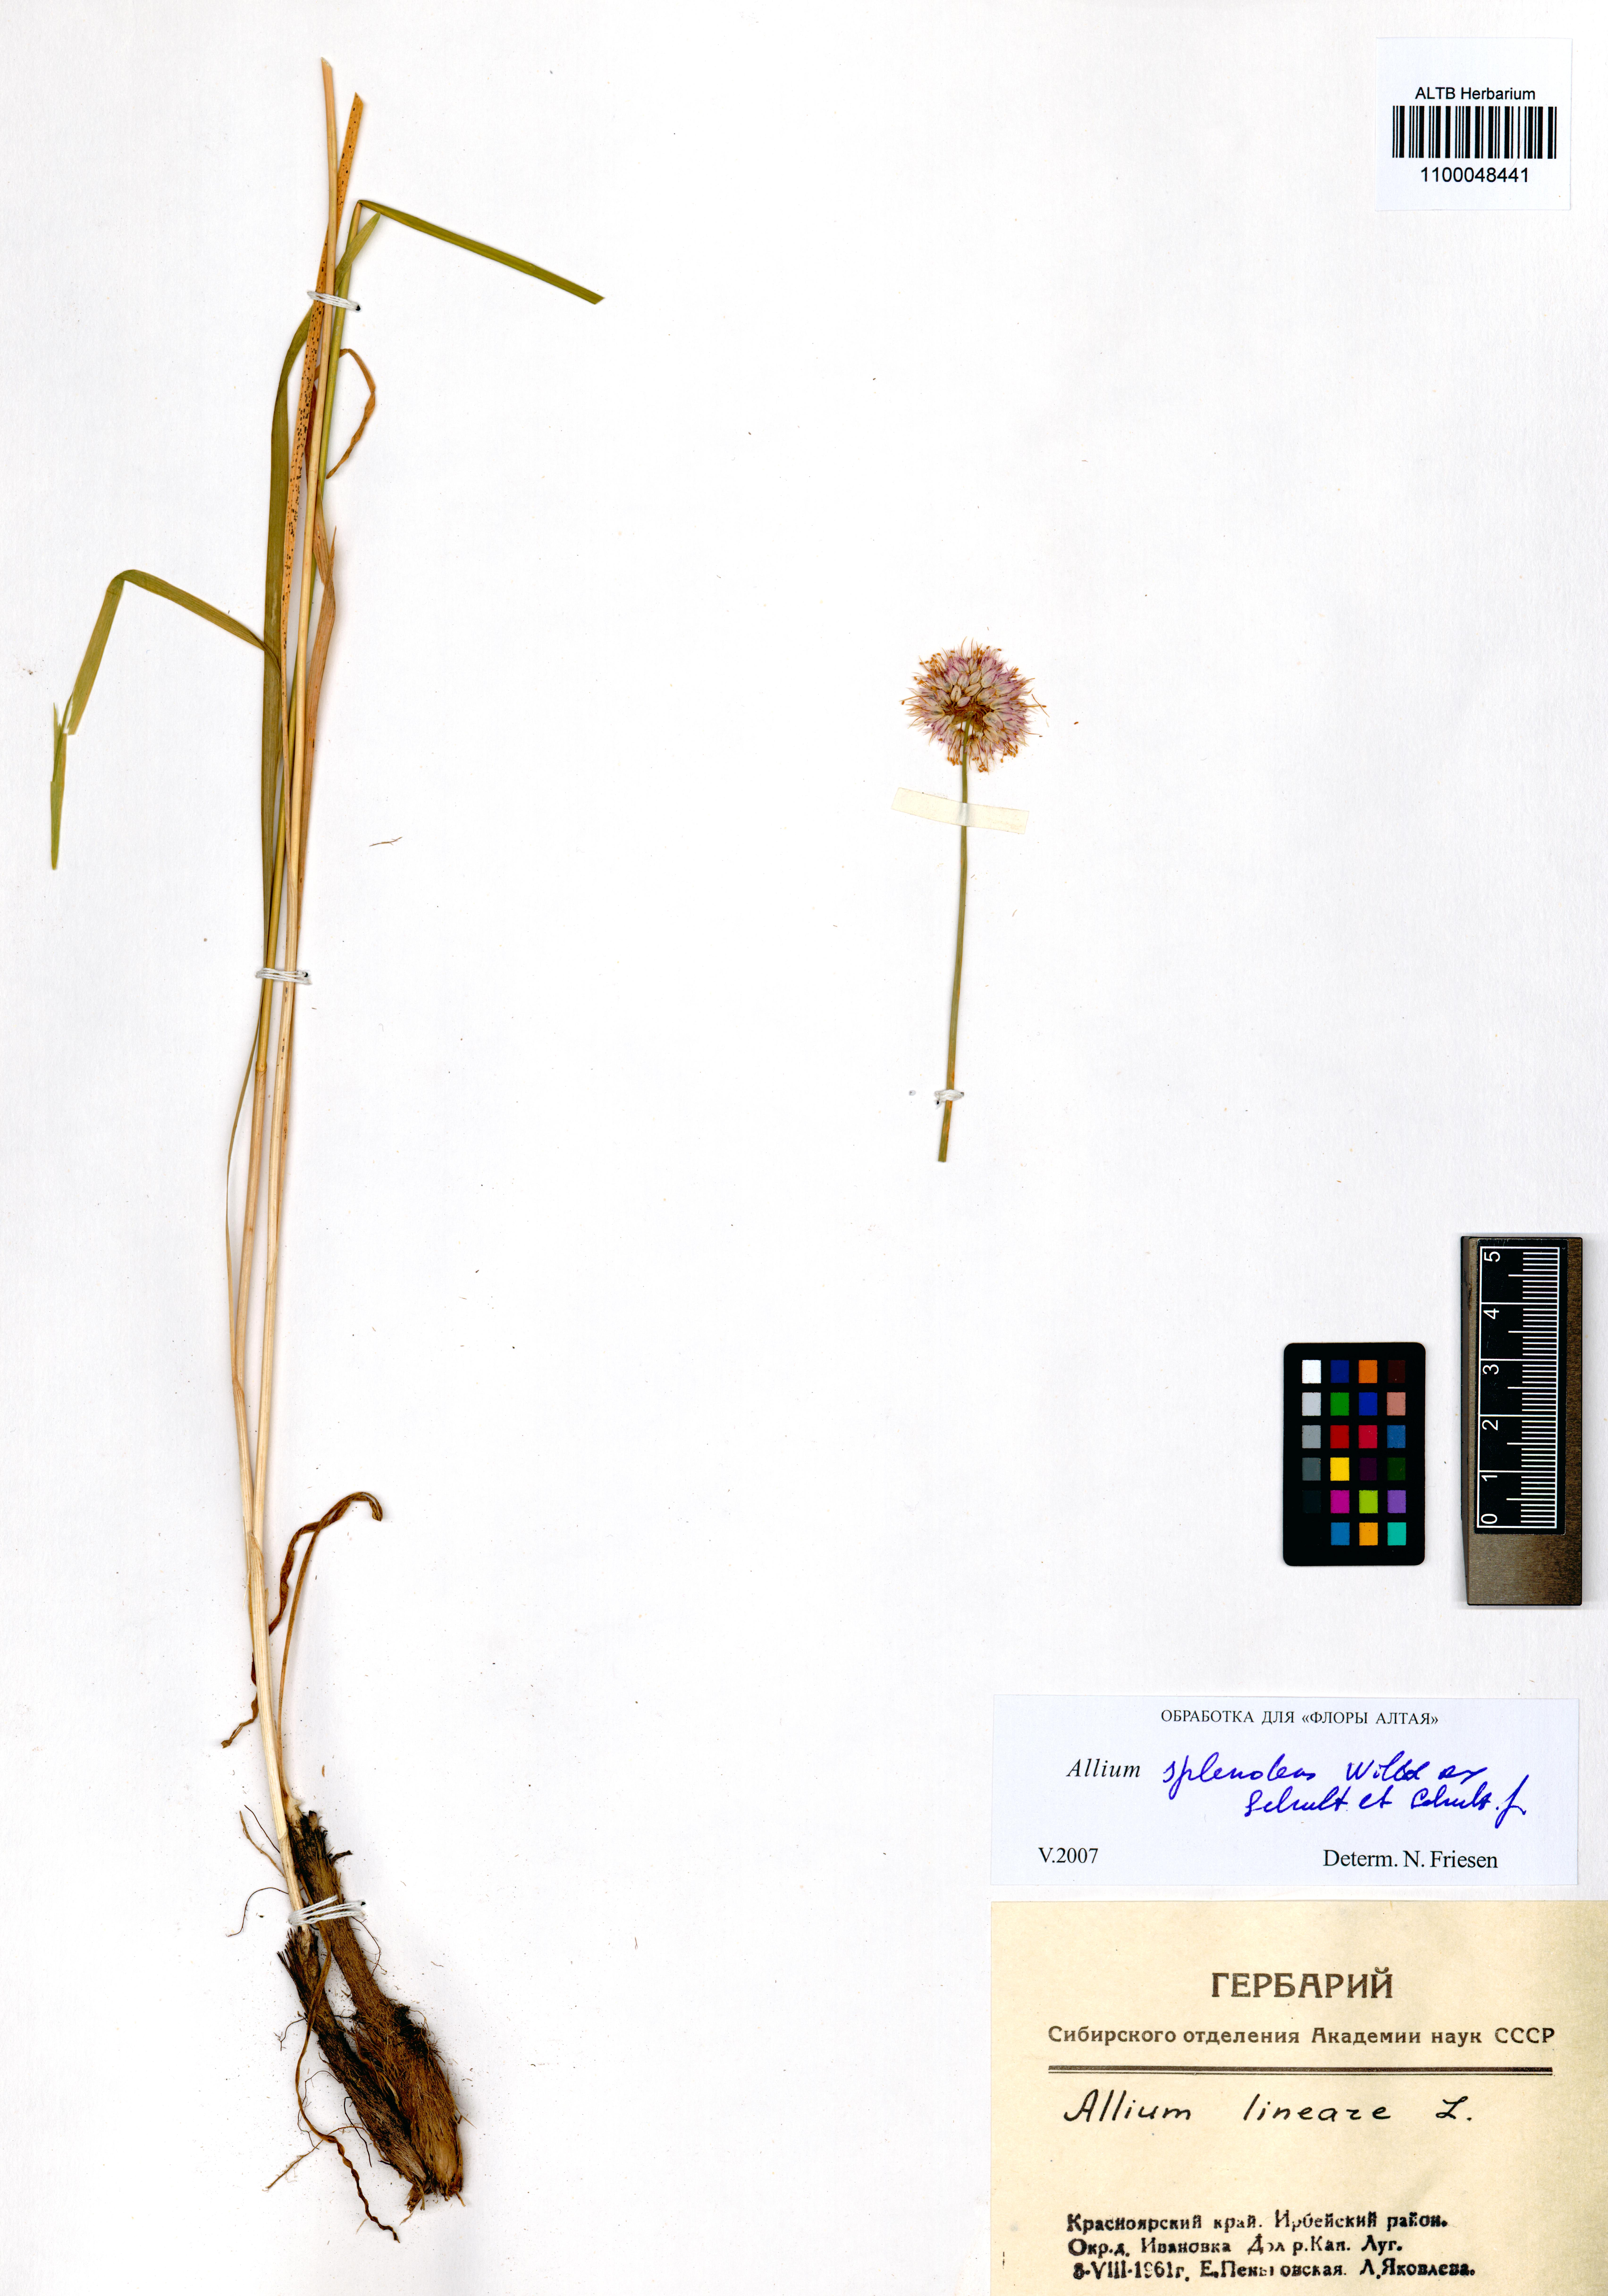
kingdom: Plantae
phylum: Tracheophyta
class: Liliopsida
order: Asparagales
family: Amaryllidaceae
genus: Allium
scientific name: Allium splendens
